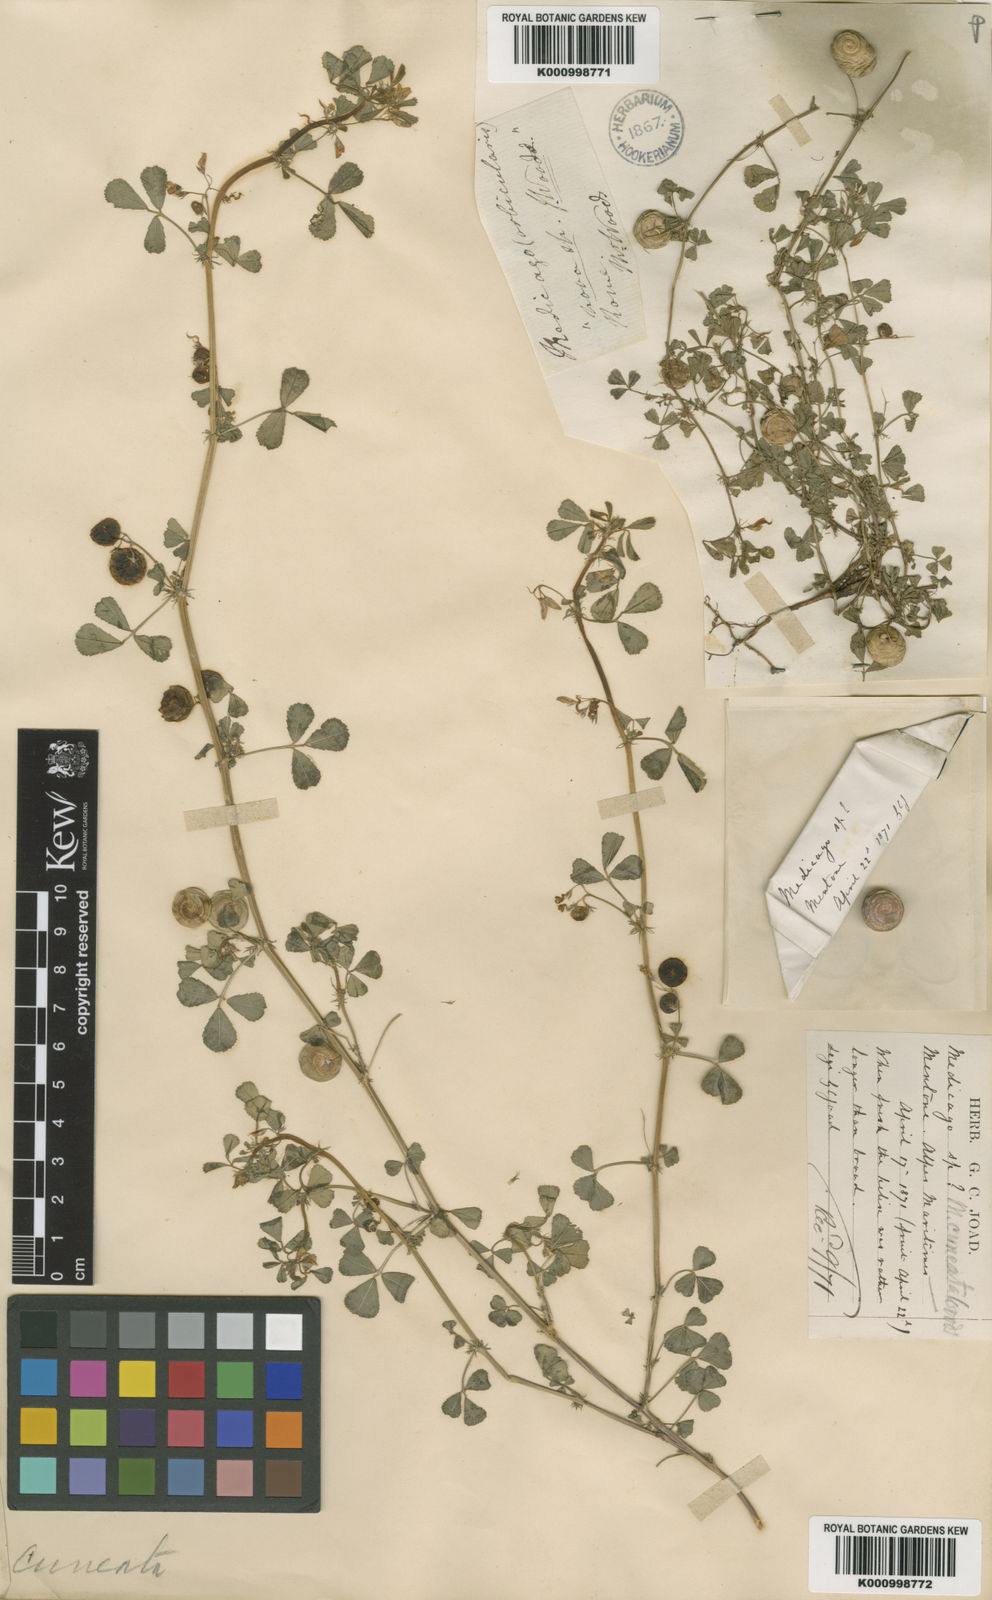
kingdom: Plantae
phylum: Tracheophyta
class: Magnoliopsida
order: Fabales
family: Fabaceae
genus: Medicago
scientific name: Medicago orbicularis
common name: Button medick
